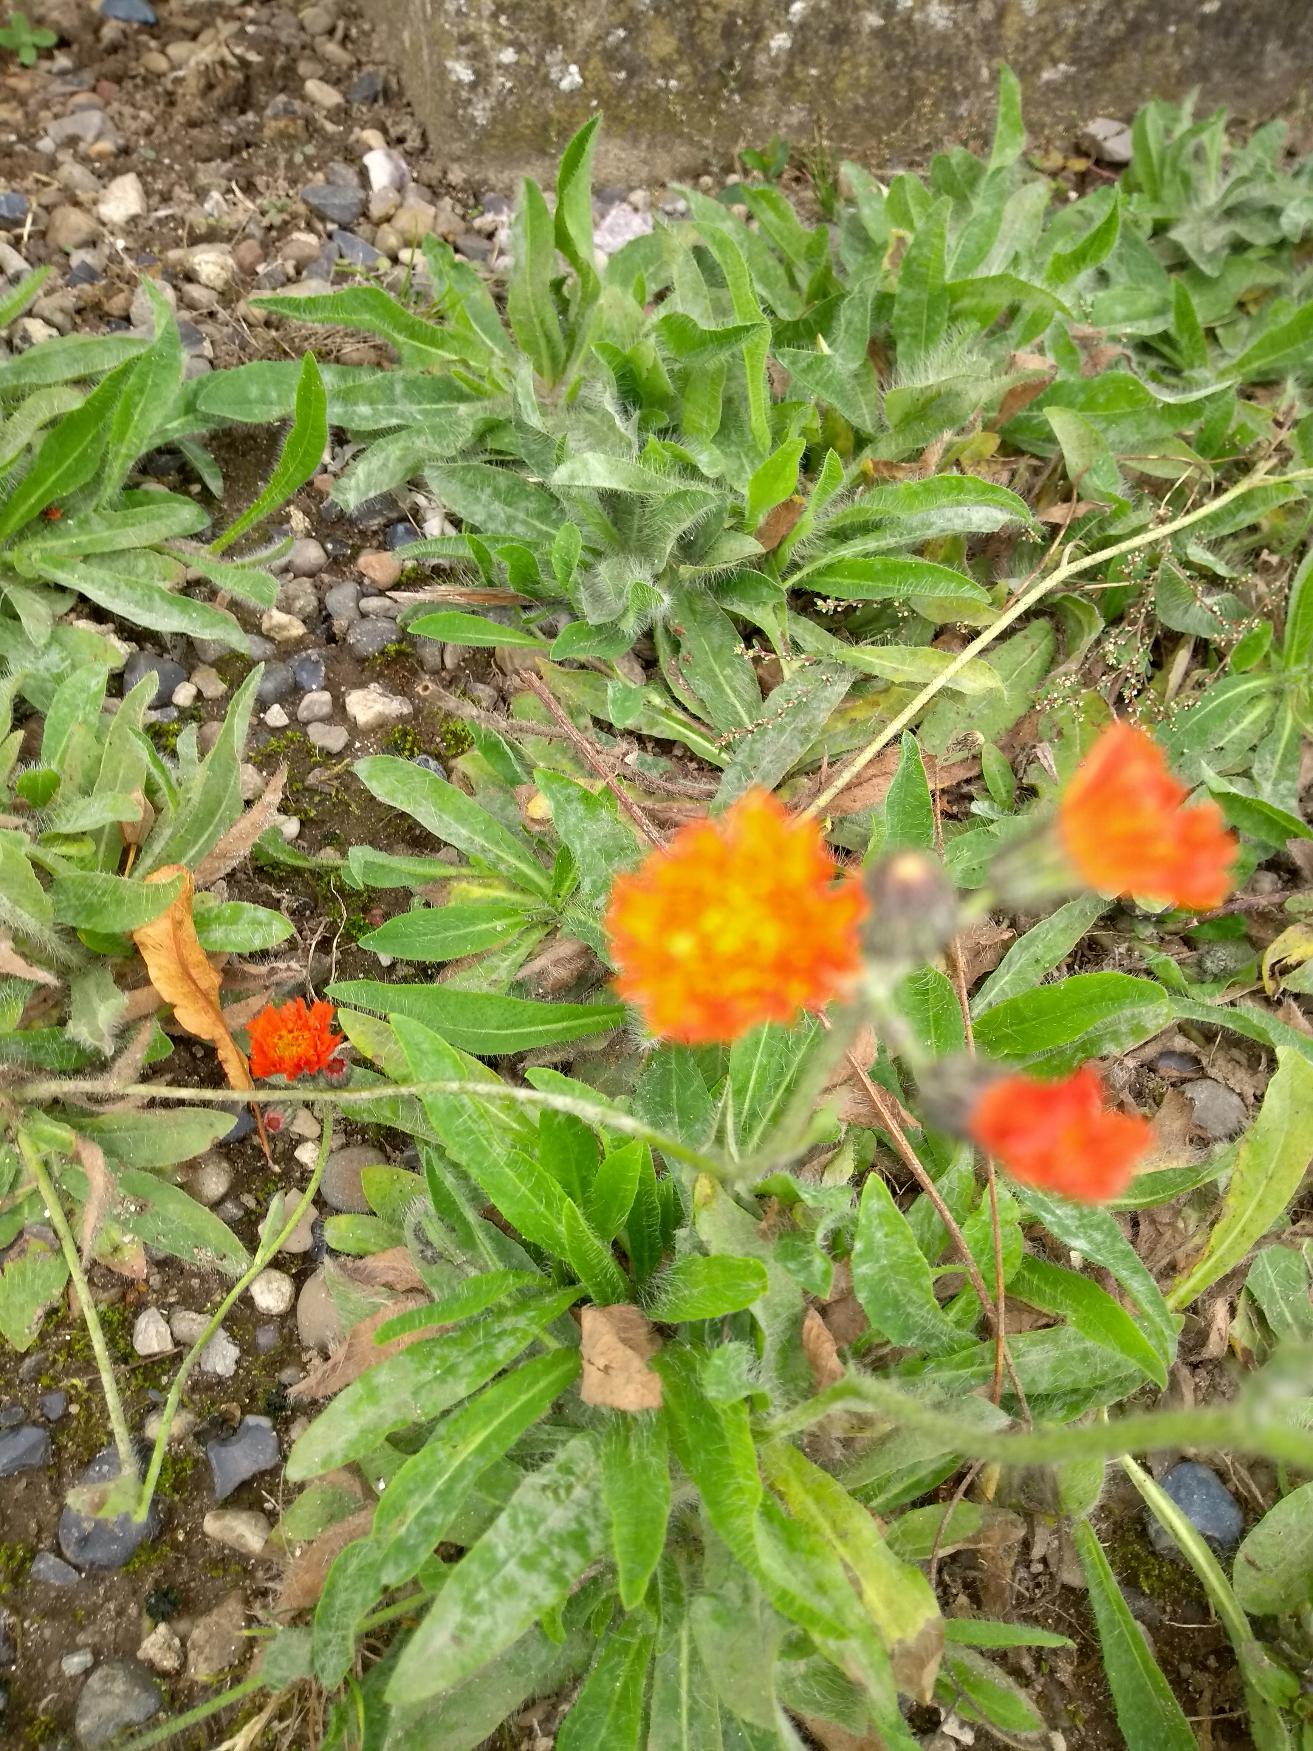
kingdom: Plantae
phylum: Tracheophyta
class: Magnoliopsida
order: Asterales
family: Asteraceae
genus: Pilosella
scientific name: Pilosella aurantiaca
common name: Pomerans-høgeurt
